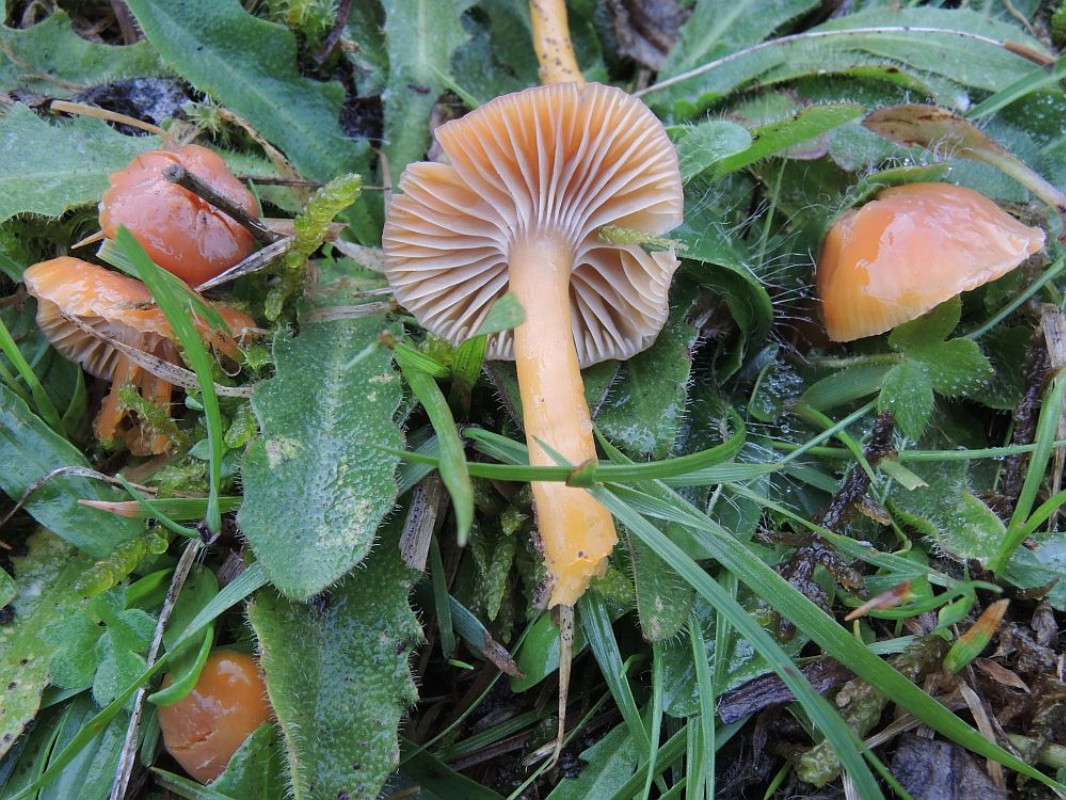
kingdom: Fungi
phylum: Basidiomycota
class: Agaricomycetes
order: Agaricales
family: Hygrophoraceae
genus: Gliophorus
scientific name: Gliophorus laetus
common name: brusk-vokshat
